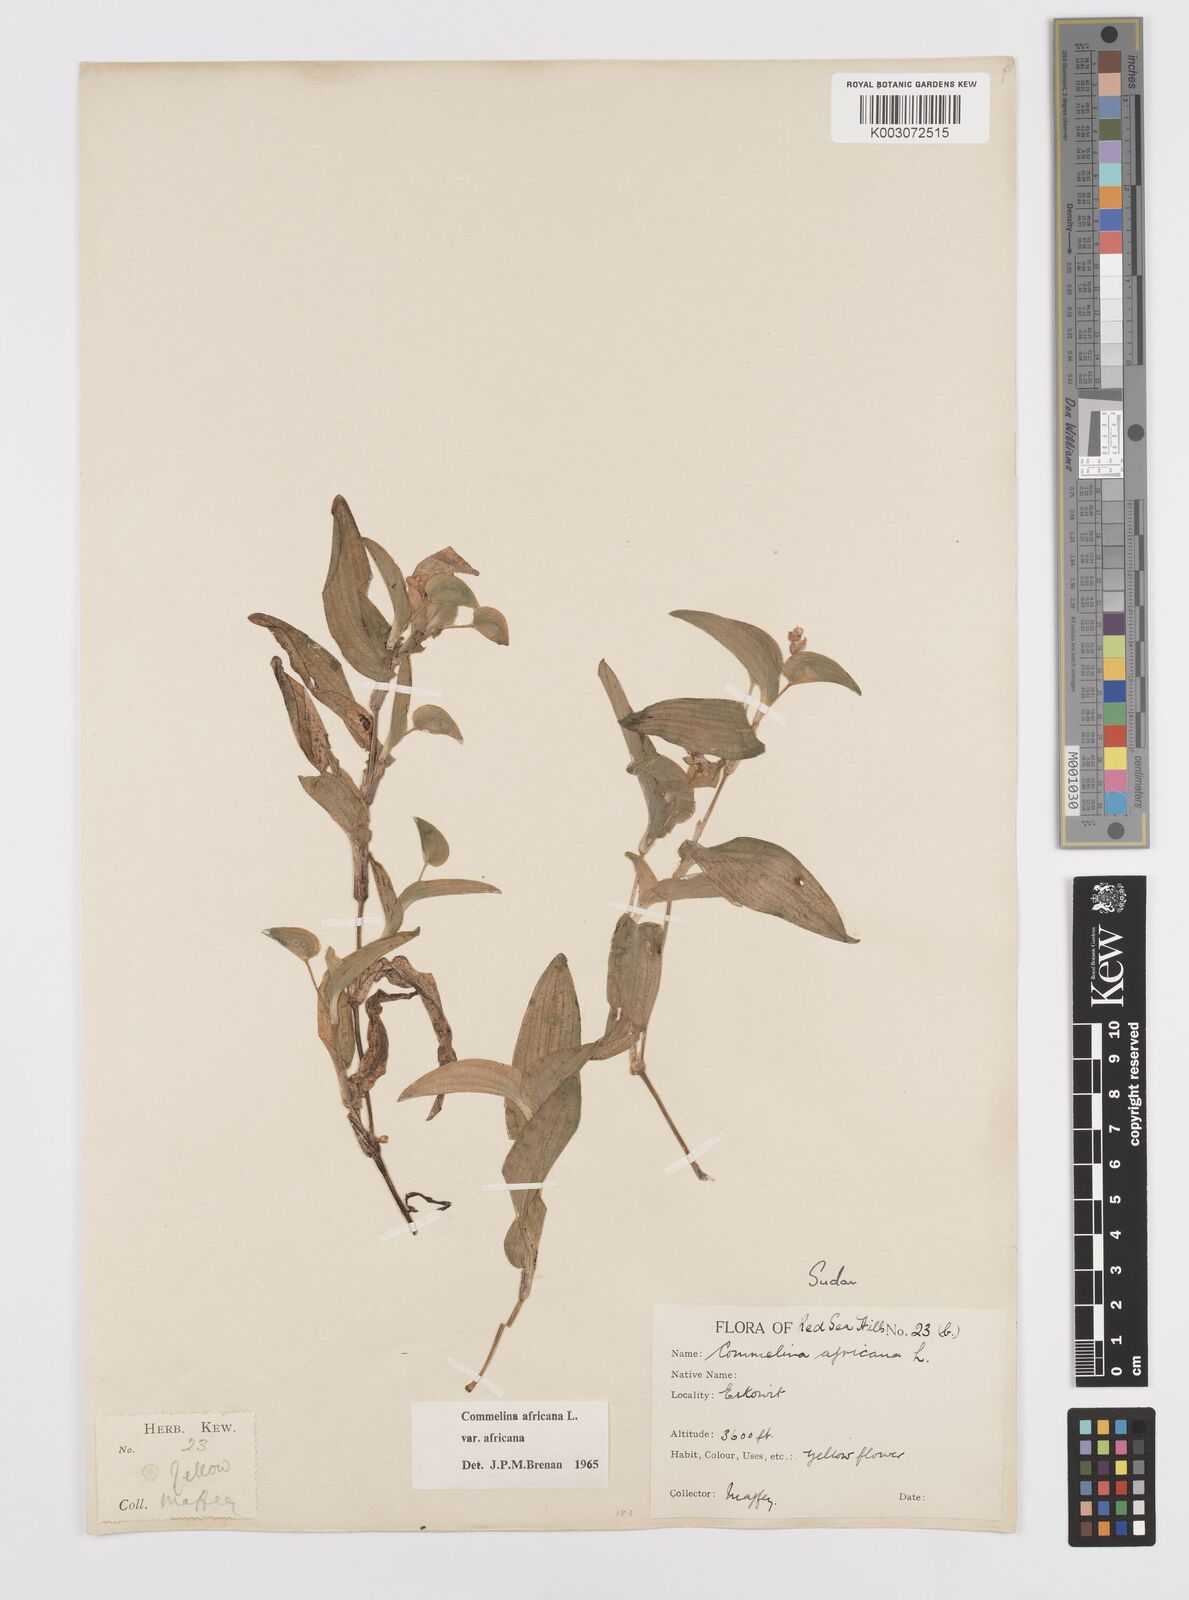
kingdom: Plantae
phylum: Tracheophyta
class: Liliopsida
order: Commelinales
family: Commelinaceae
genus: Commelina
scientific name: Commelina africana
